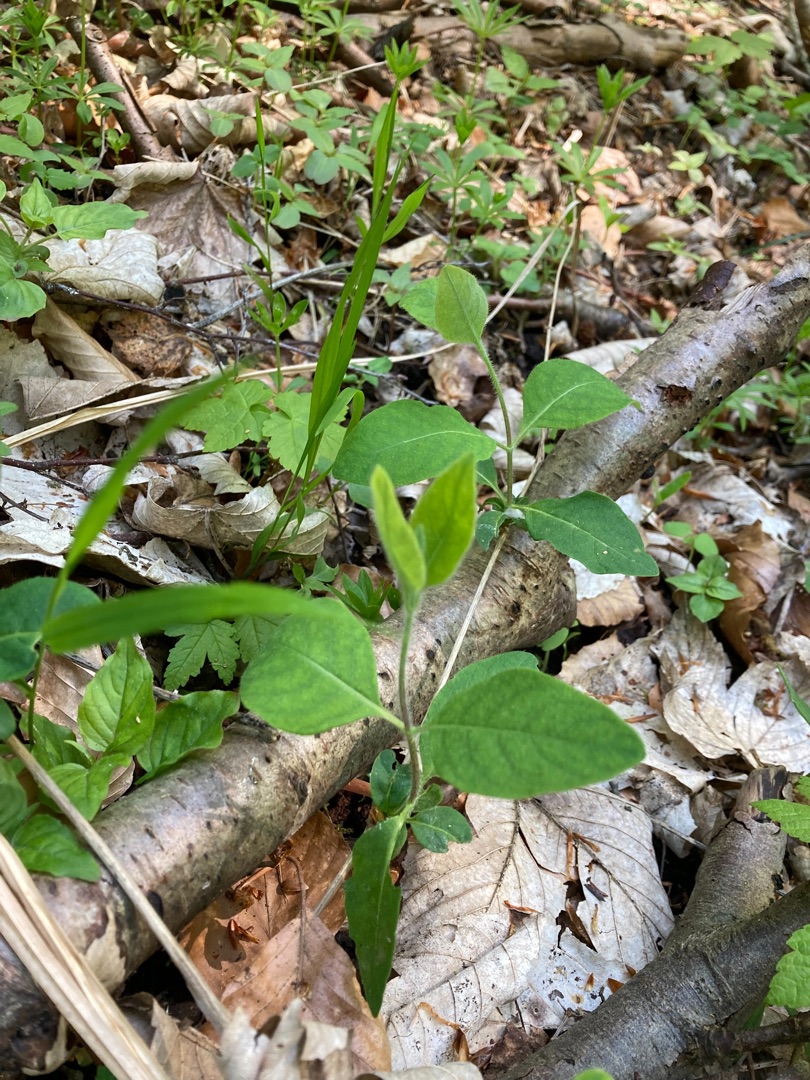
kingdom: Plantae
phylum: Tracheophyta
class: Magnoliopsida
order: Dipsacales
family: Caprifoliaceae
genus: Lonicera
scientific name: Lonicera periclymenum
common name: Almindelig gedeblad
